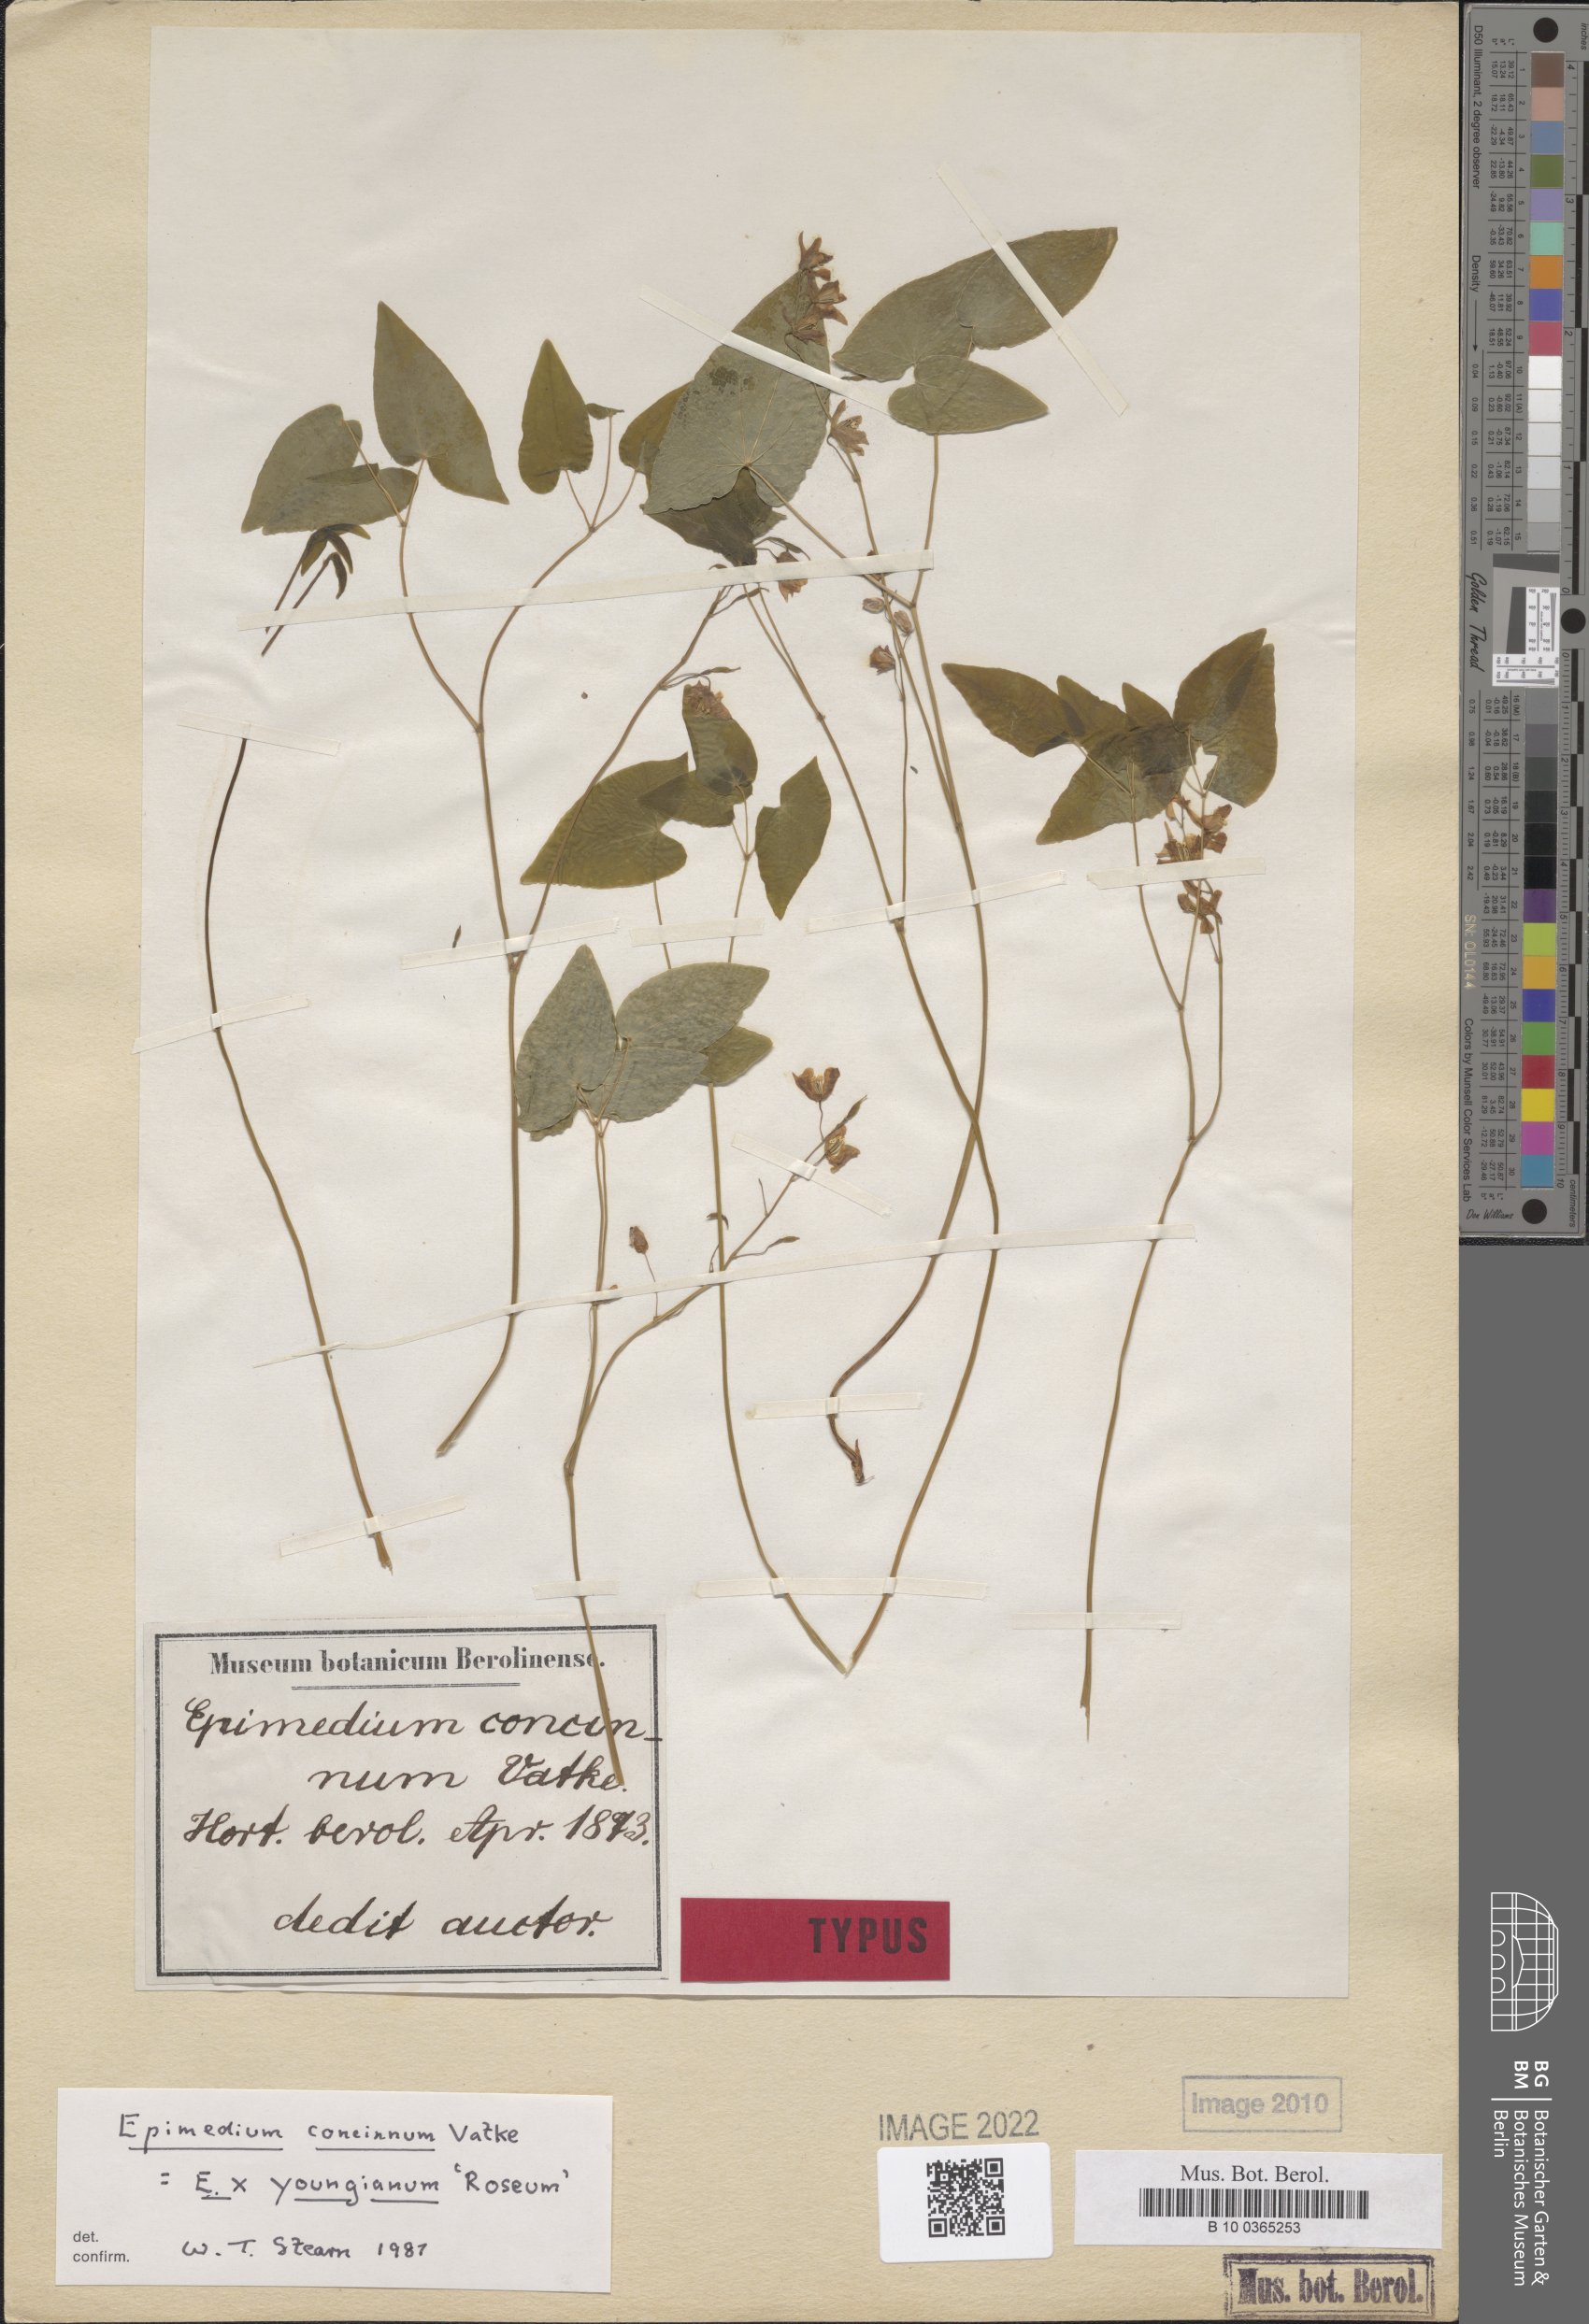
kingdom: Plantae
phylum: Tracheophyta
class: Magnoliopsida
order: Ranunculales
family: Berberidaceae
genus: Epimedium
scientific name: Epimedium youngianum
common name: Epimedium
